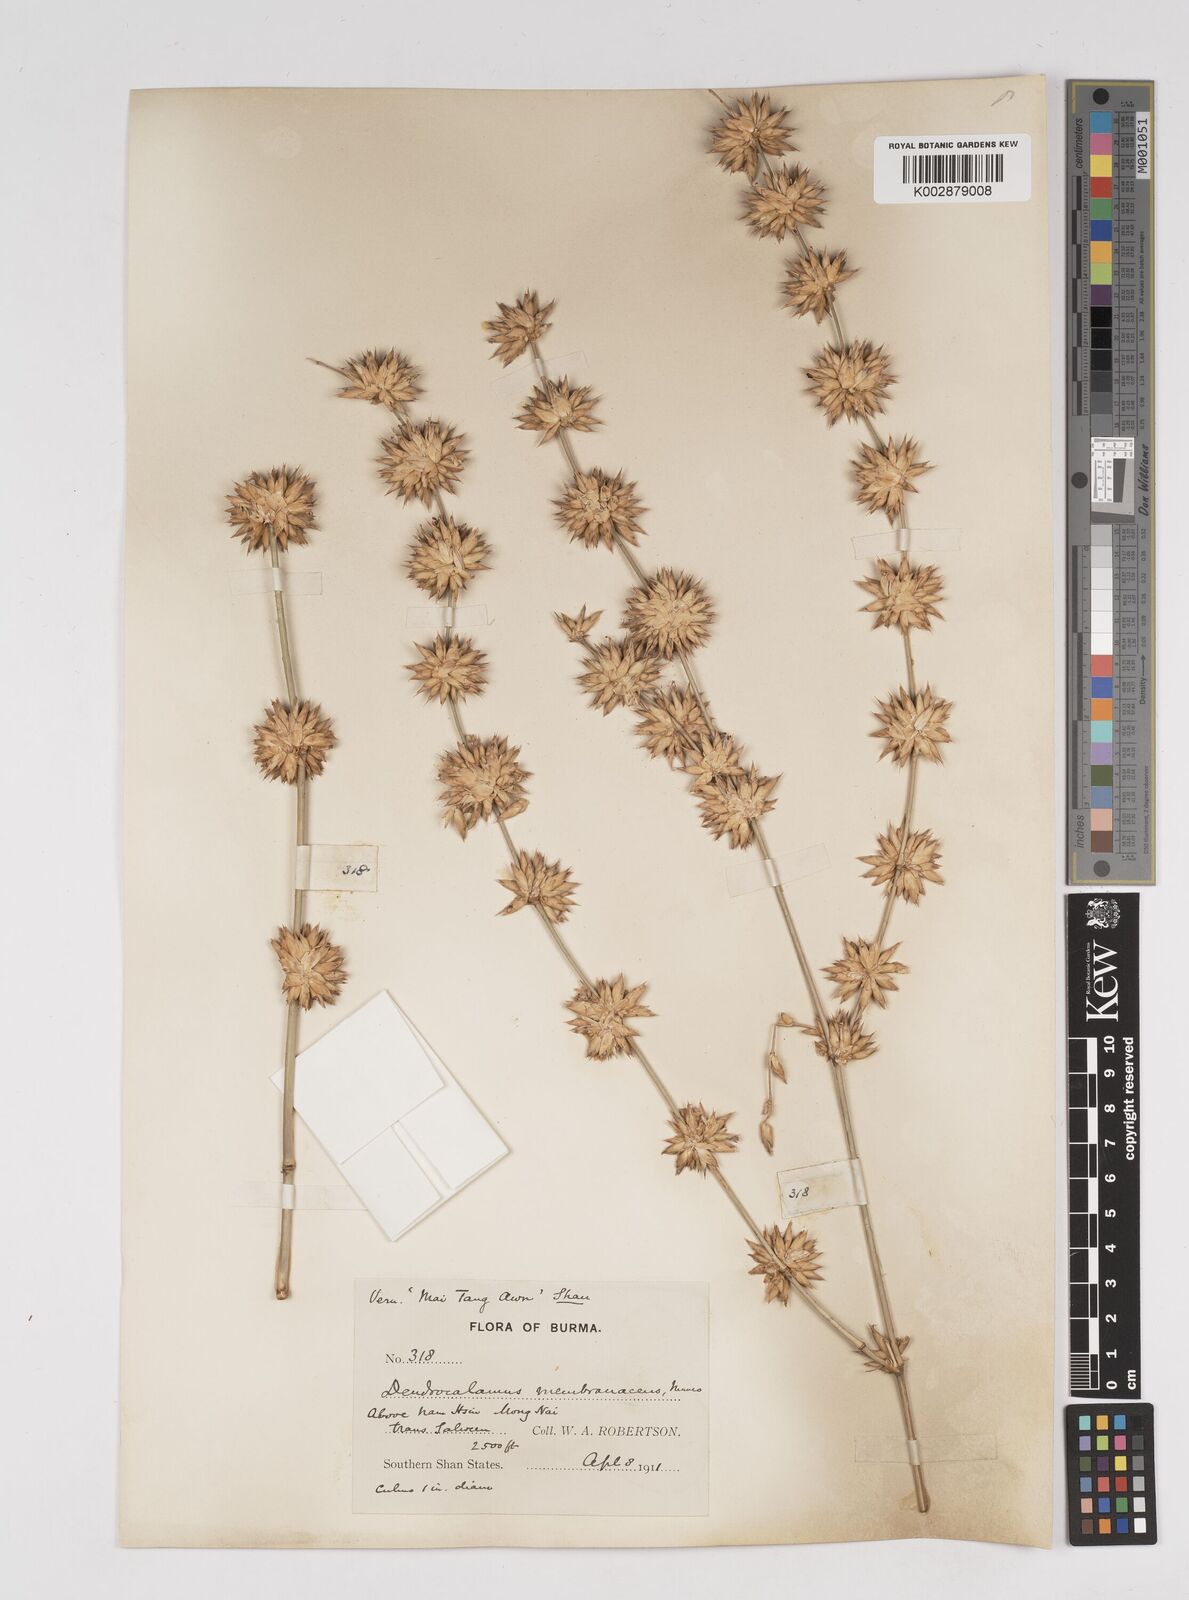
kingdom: Plantae
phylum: Tracheophyta
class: Liliopsida
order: Poales
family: Poaceae
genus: Dendrocalamus
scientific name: Dendrocalamus membranaceus
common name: White bamboo
